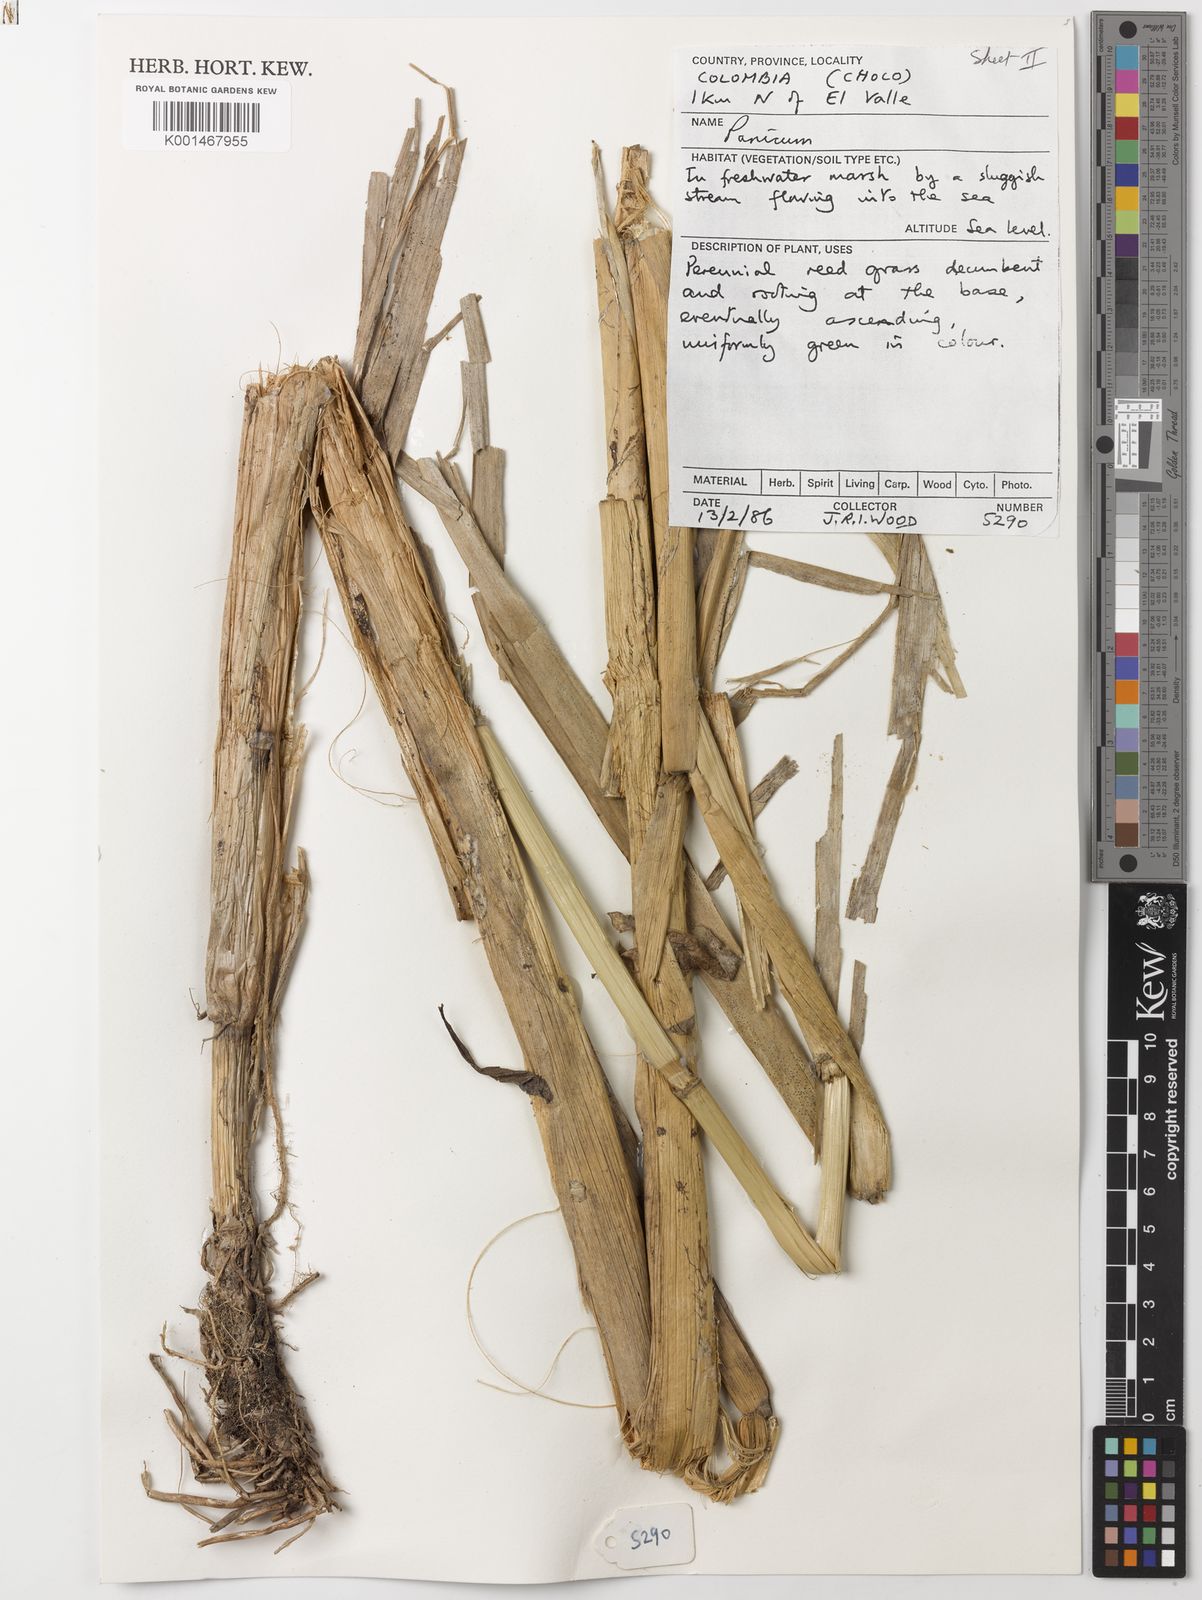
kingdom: Plantae
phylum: Tracheophyta
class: Liliopsida
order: Poales
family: Poaceae
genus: Hymenachne
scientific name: Hymenachne grandis
